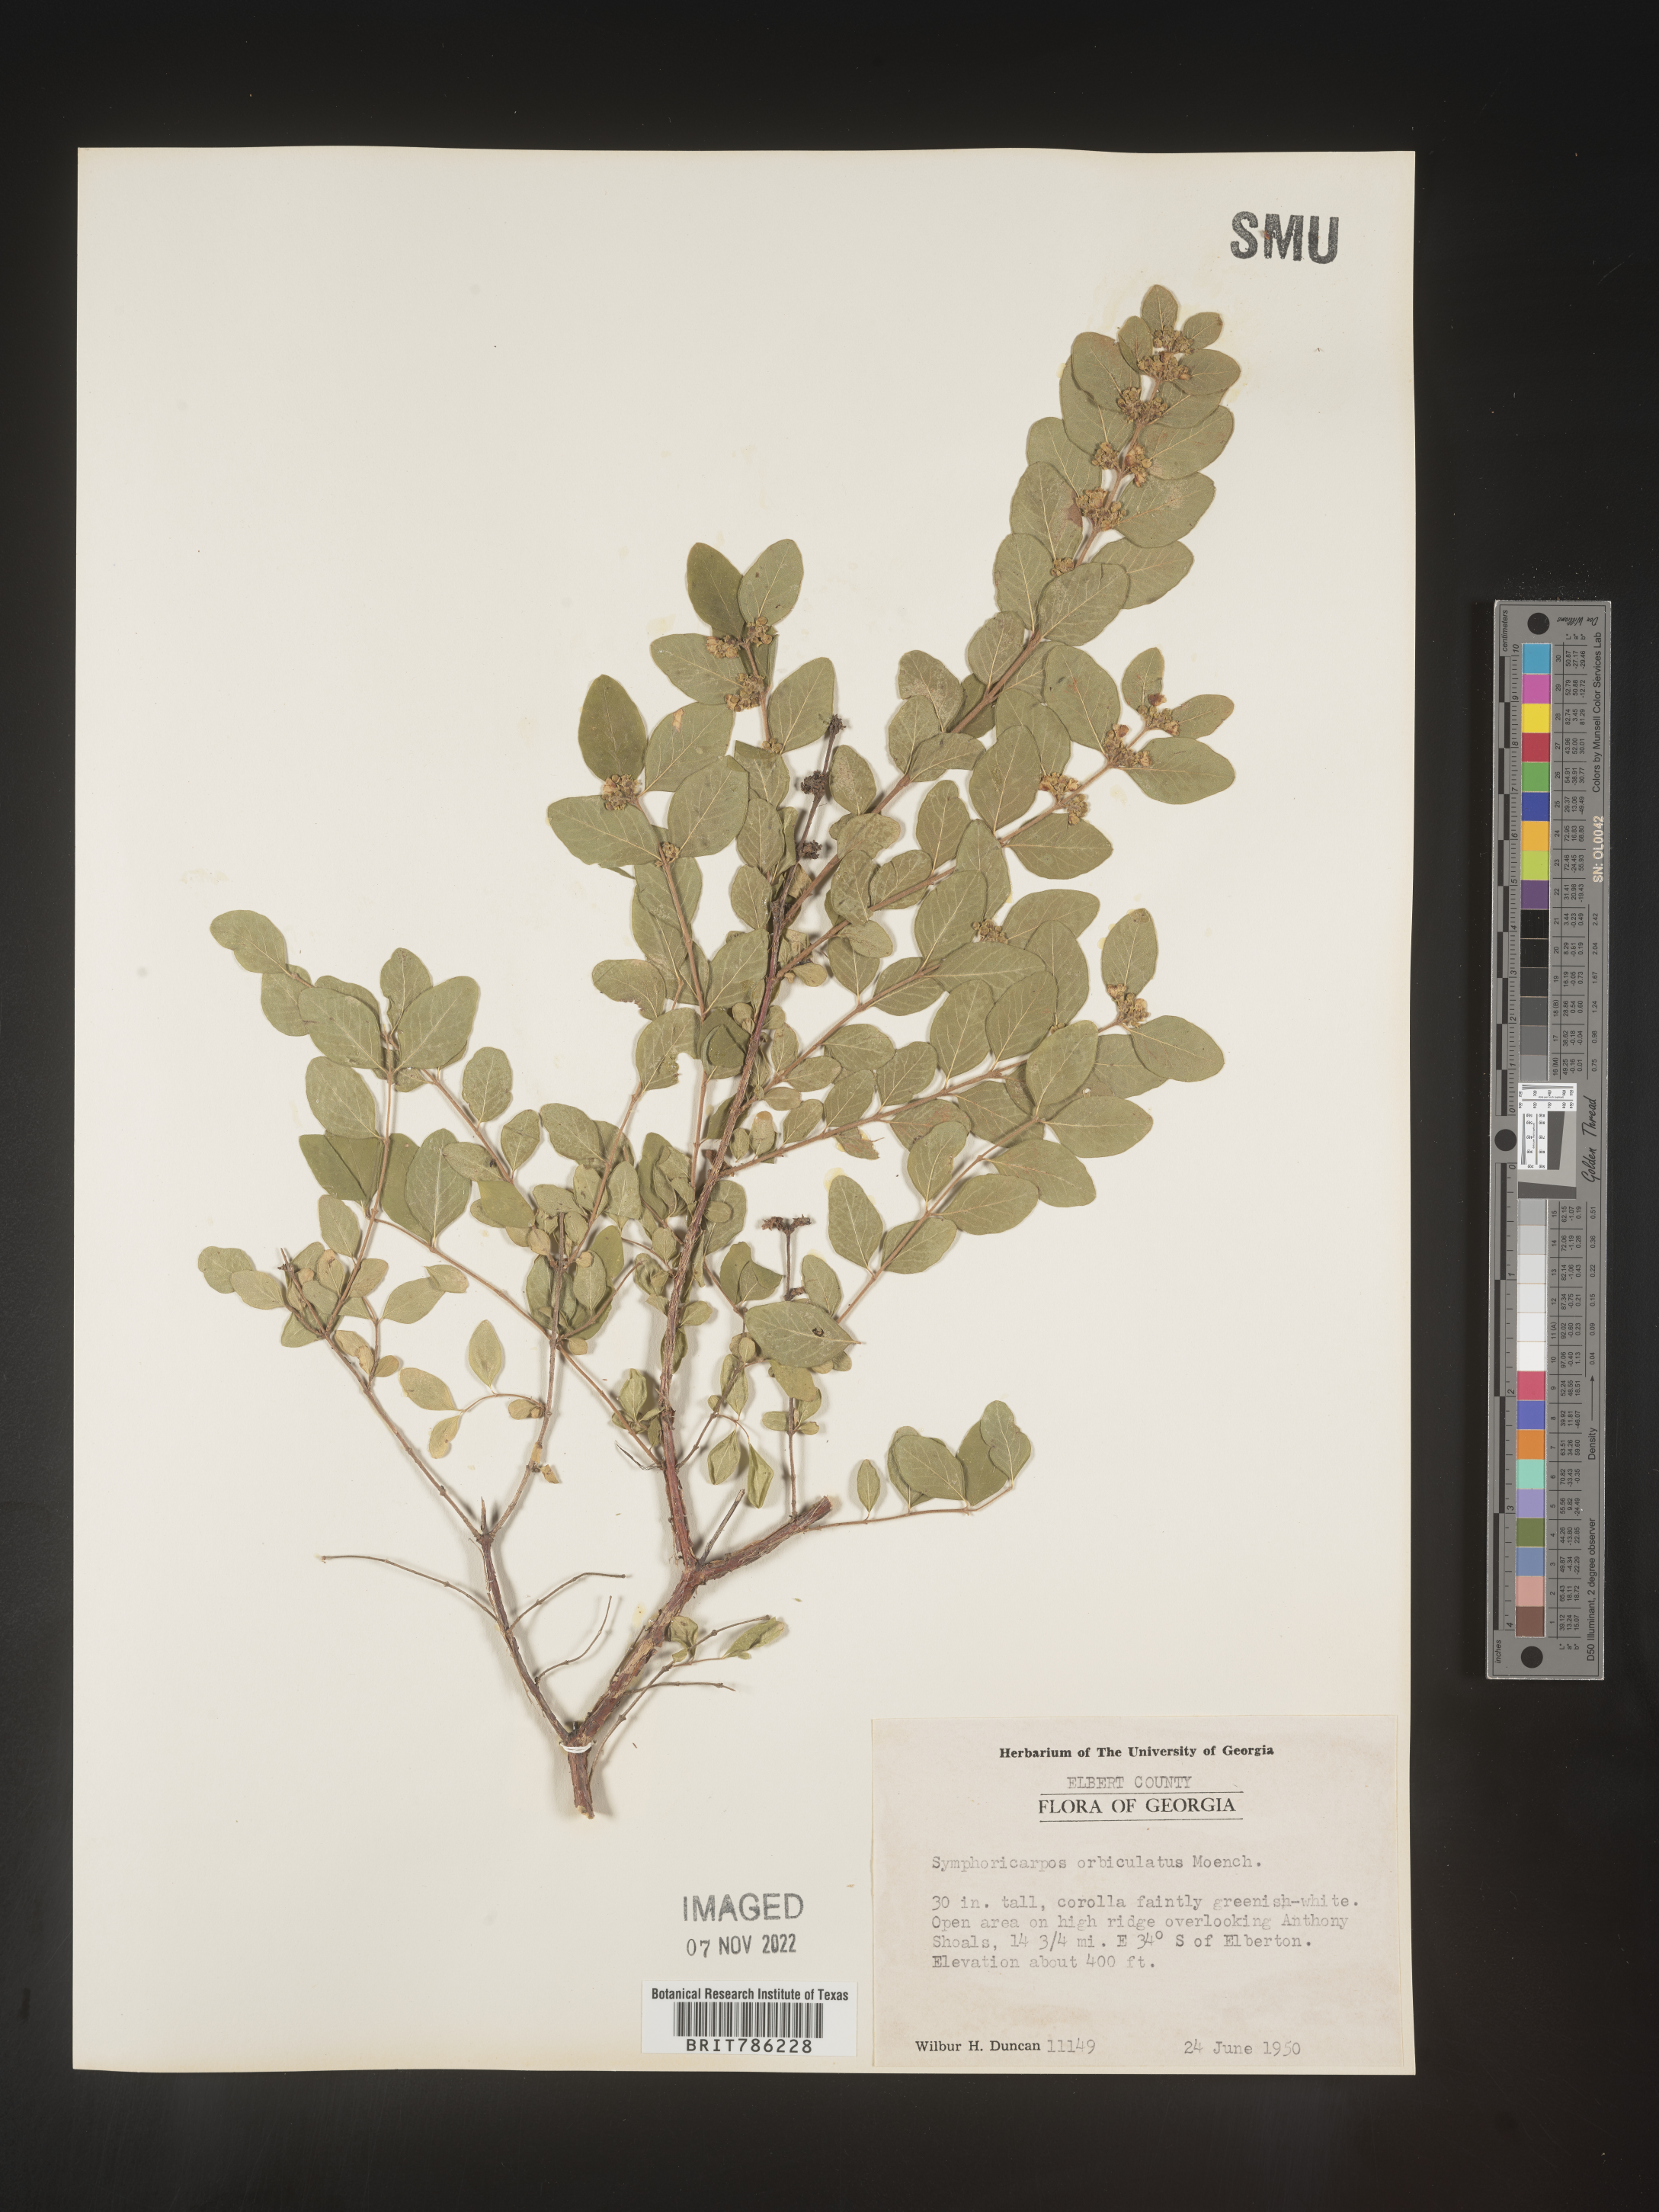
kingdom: Plantae
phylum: Tracheophyta
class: Magnoliopsida
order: Dipsacales
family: Caprifoliaceae
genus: Symphoricarpos
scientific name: Symphoricarpos orbiculatus
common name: Coralberry
